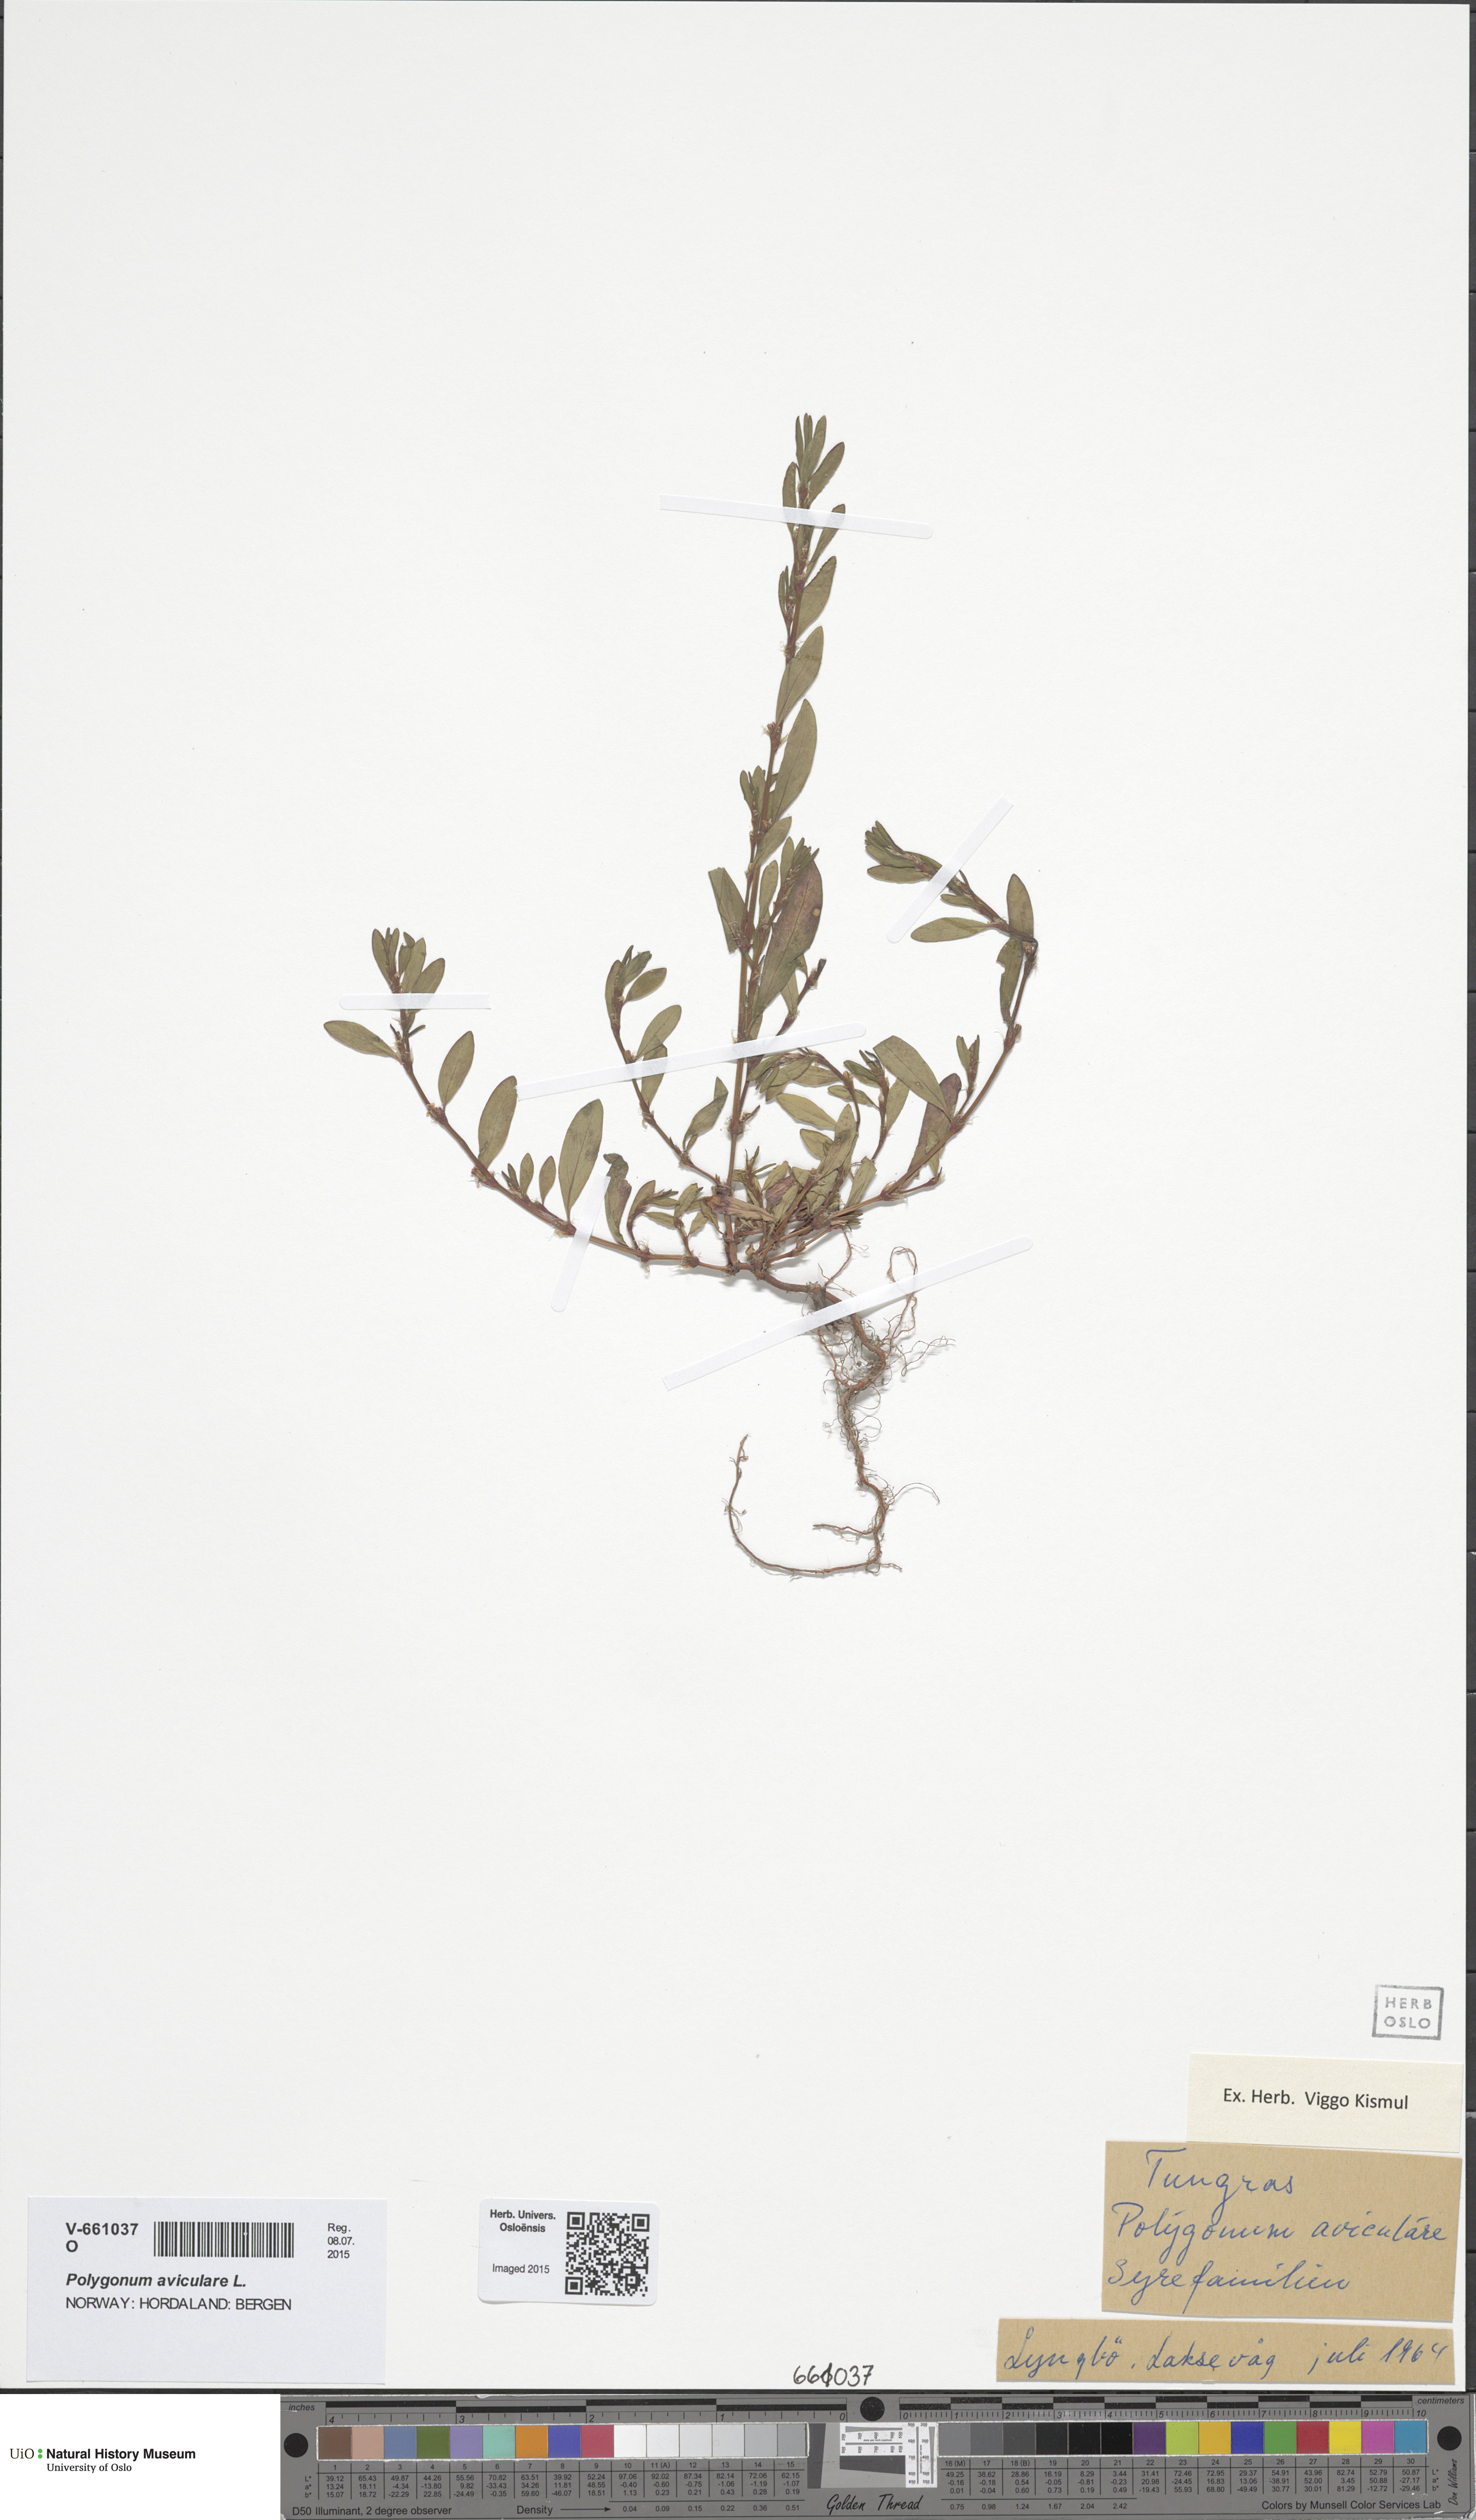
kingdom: Plantae
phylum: Tracheophyta
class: Magnoliopsida
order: Caryophyllales
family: Polygonaceae
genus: Polygonum
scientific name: Polygonum aviculare
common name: Prostrate knotweed
